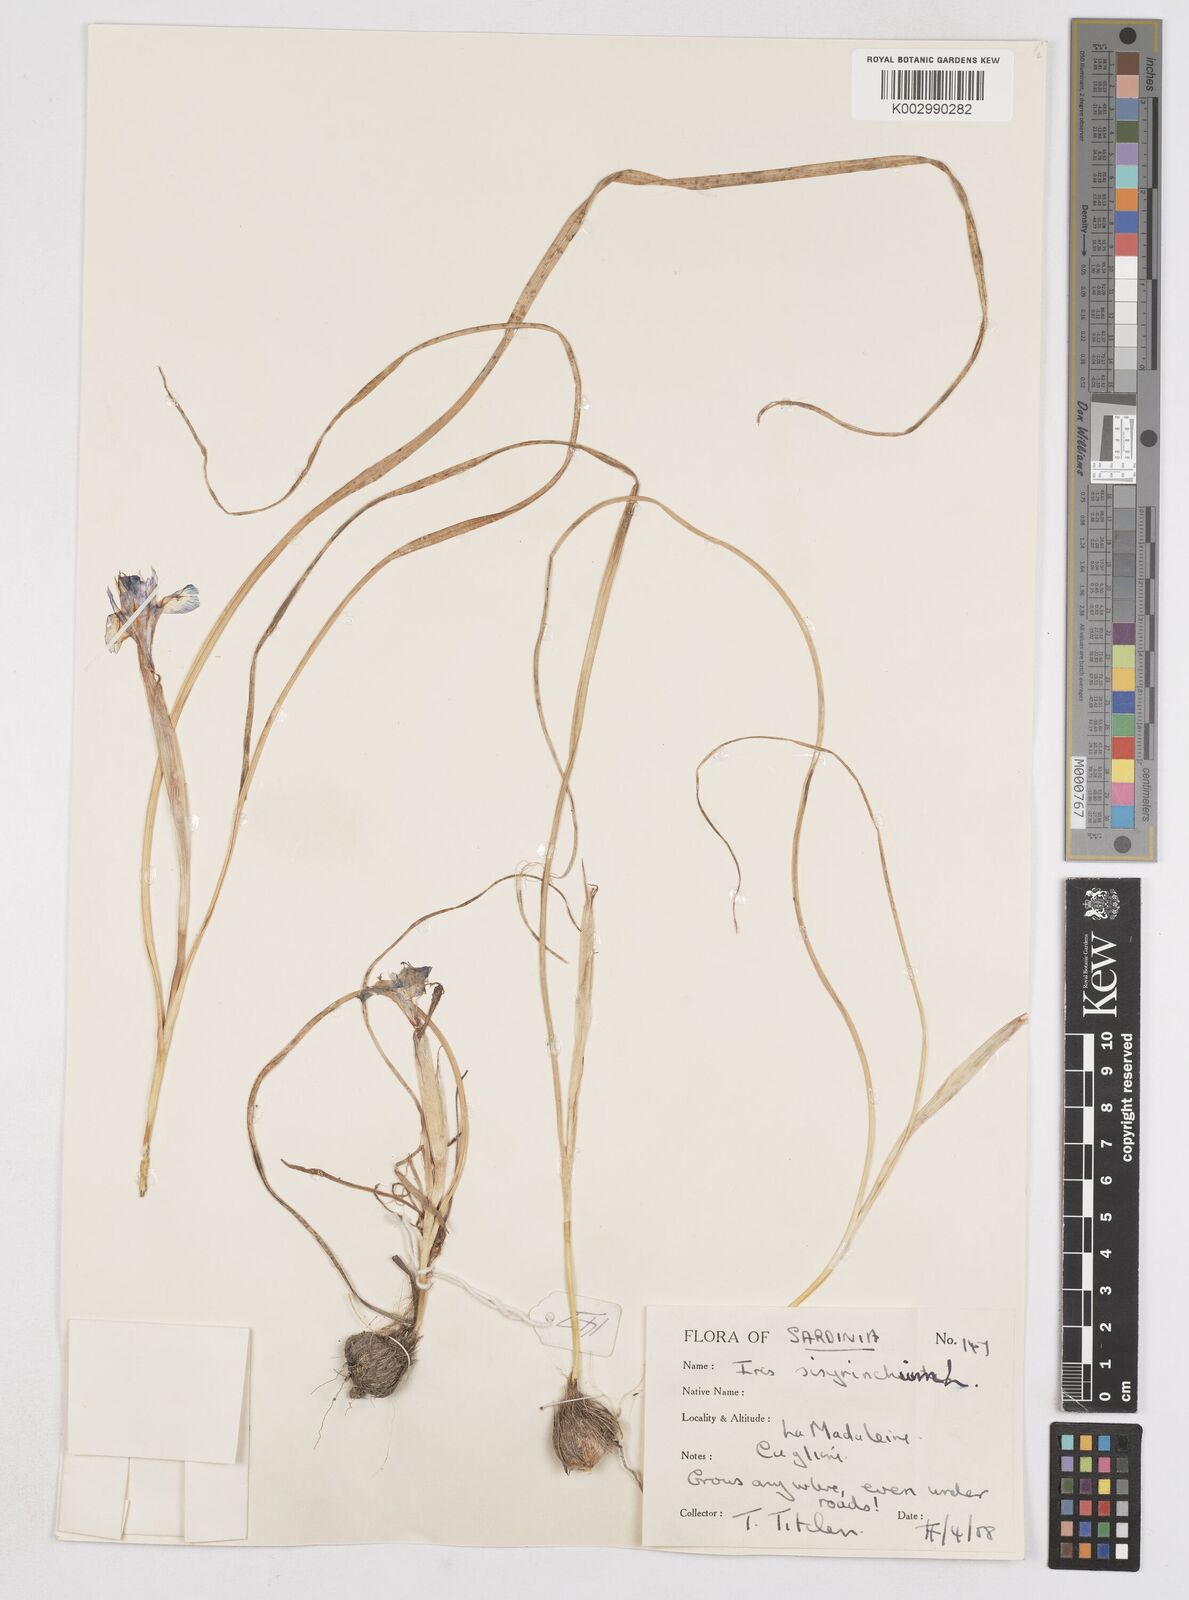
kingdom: Plantae
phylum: Tracheophyta
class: Liliopsida
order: Asparagales
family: Iridaceae
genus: Moraea
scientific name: Moraea sisyrinchium
